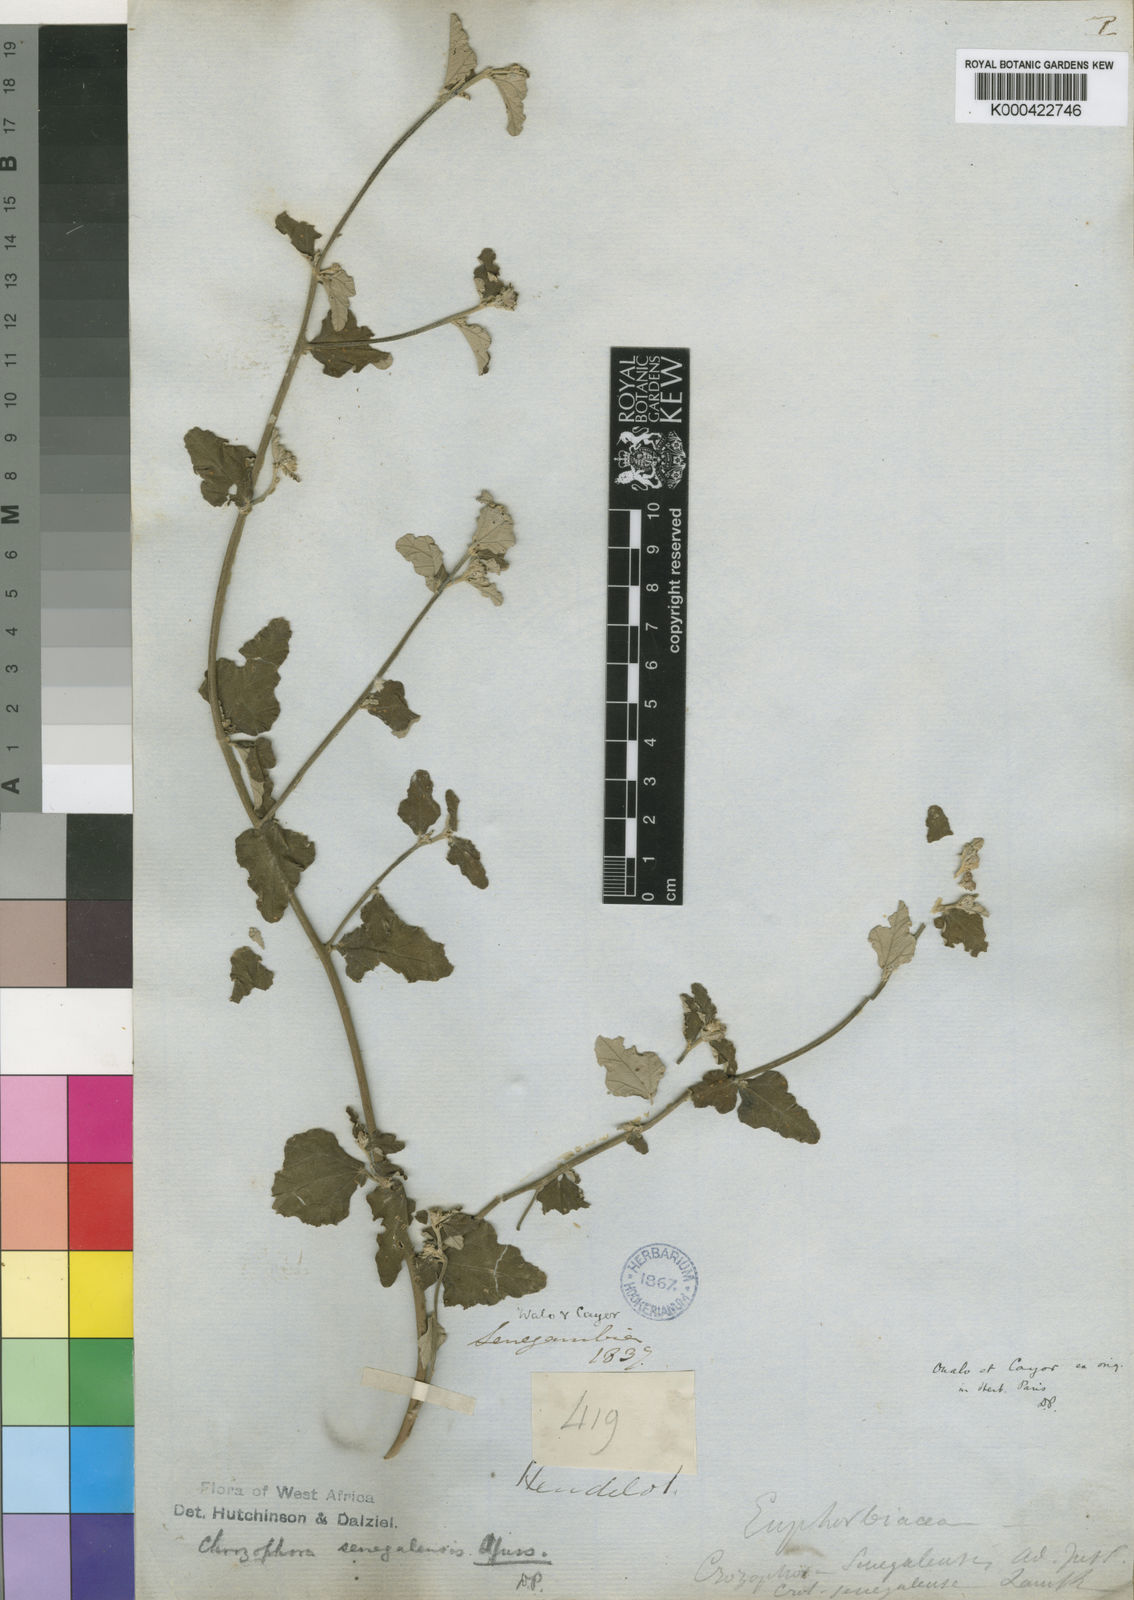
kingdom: Plantae
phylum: Tracheophyta
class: Magnoliopsida
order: Malpighiales
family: Euphorbiaceae
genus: Chrozophora
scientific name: Chrozophora senegalensis
